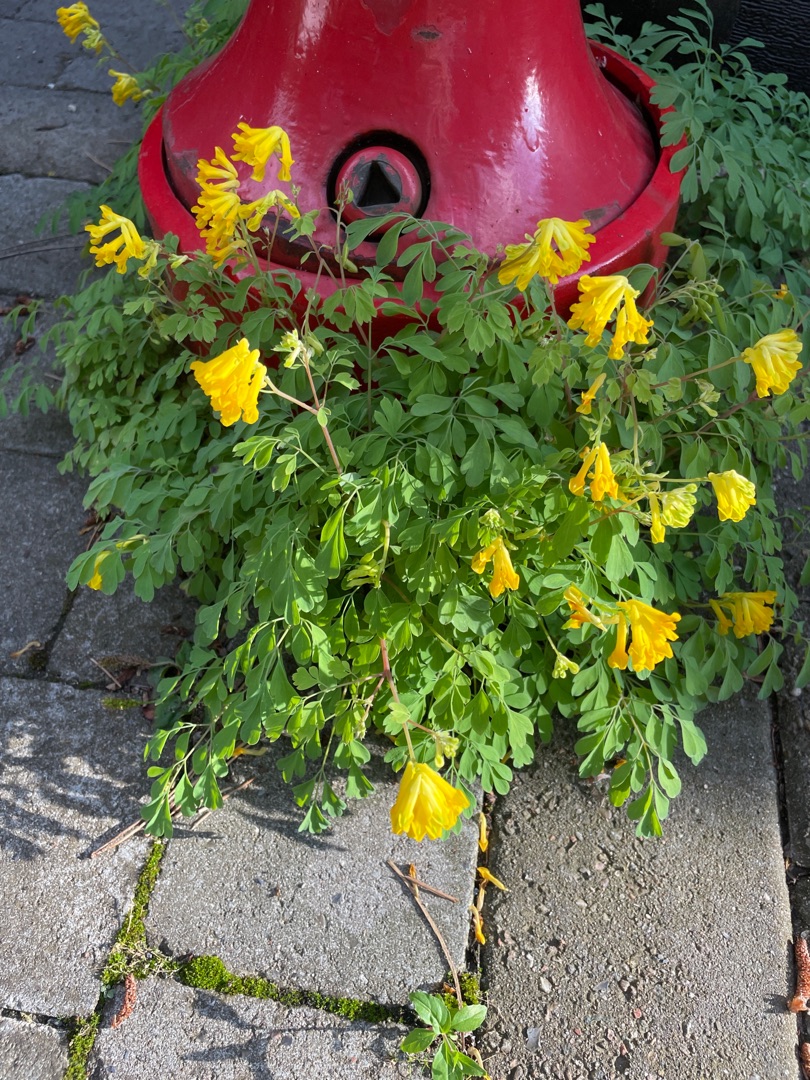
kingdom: Plantae
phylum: Tracheophyta
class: Magnoliopsida
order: Ranunculales
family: Papaveraceae
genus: Pseudofumaria
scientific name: Pseudofumaria lutea
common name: Gul lærkespore
